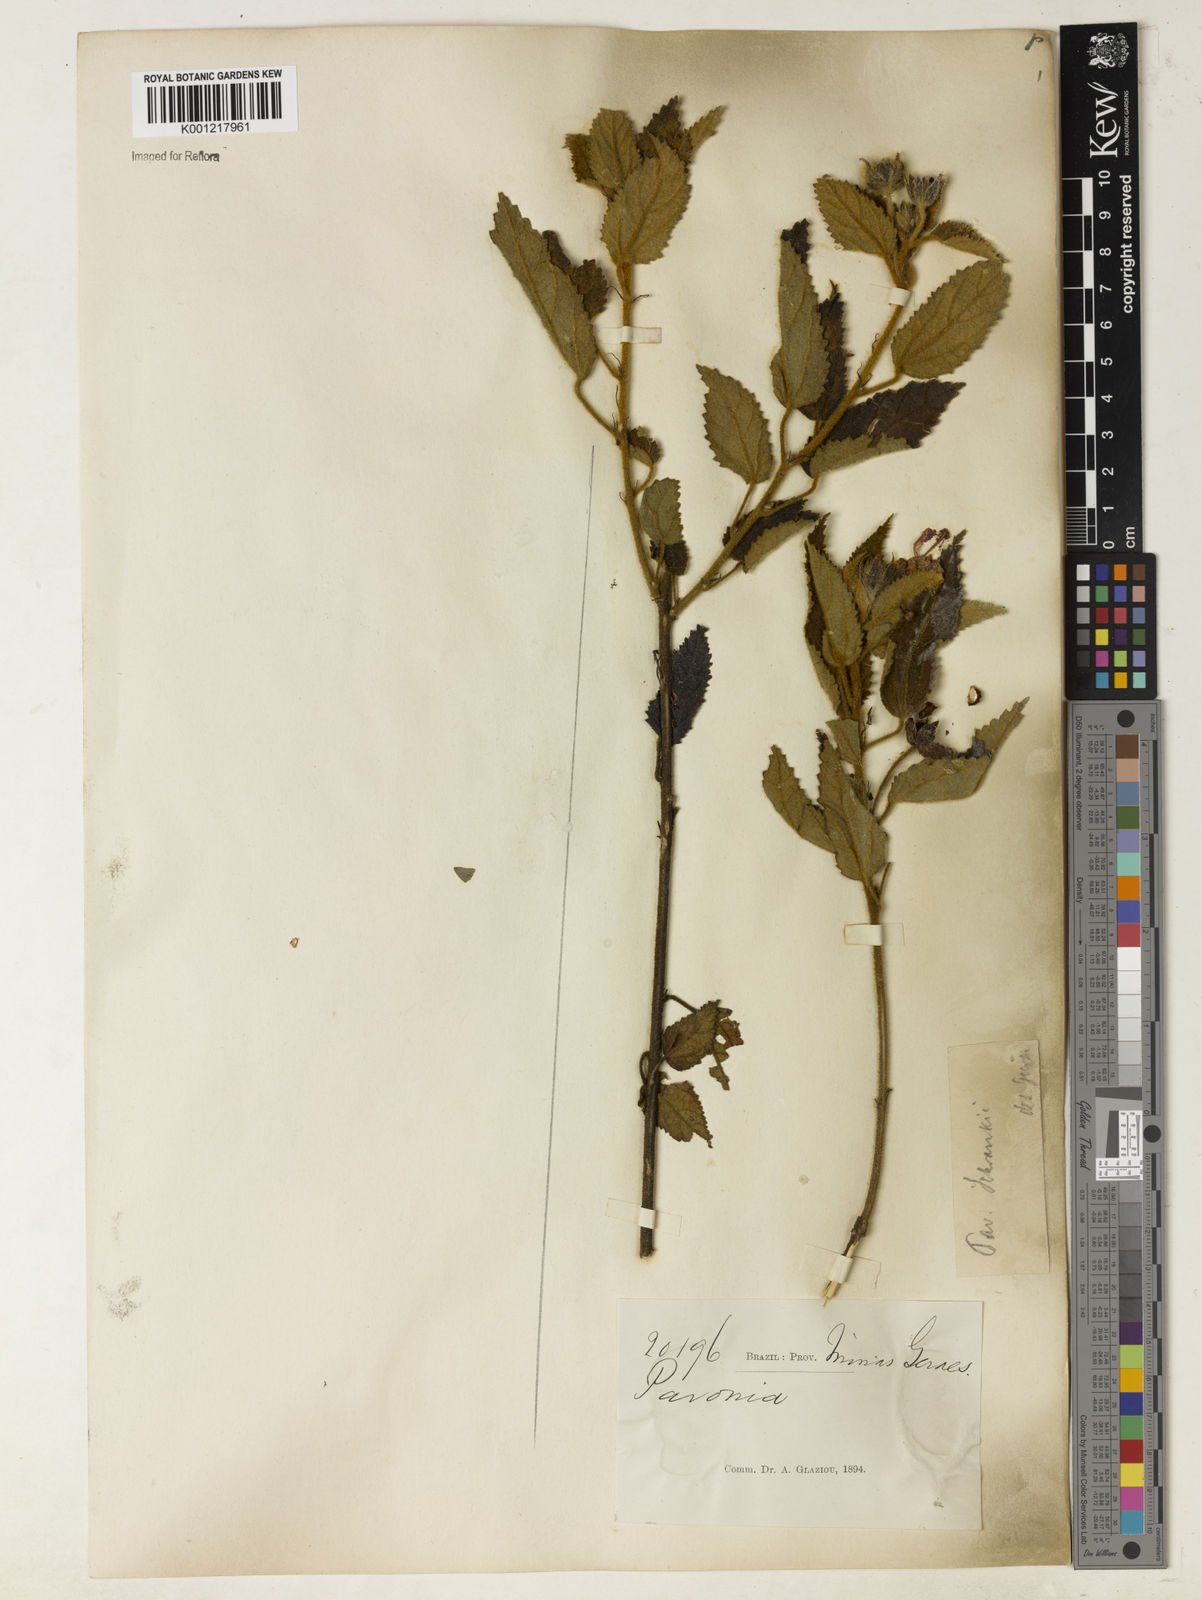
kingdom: Plantae
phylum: Tracheophyta
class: Magnoliopsida
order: Malvales
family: Malvaceae
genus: Pavonia
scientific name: Pavonia schrankii
